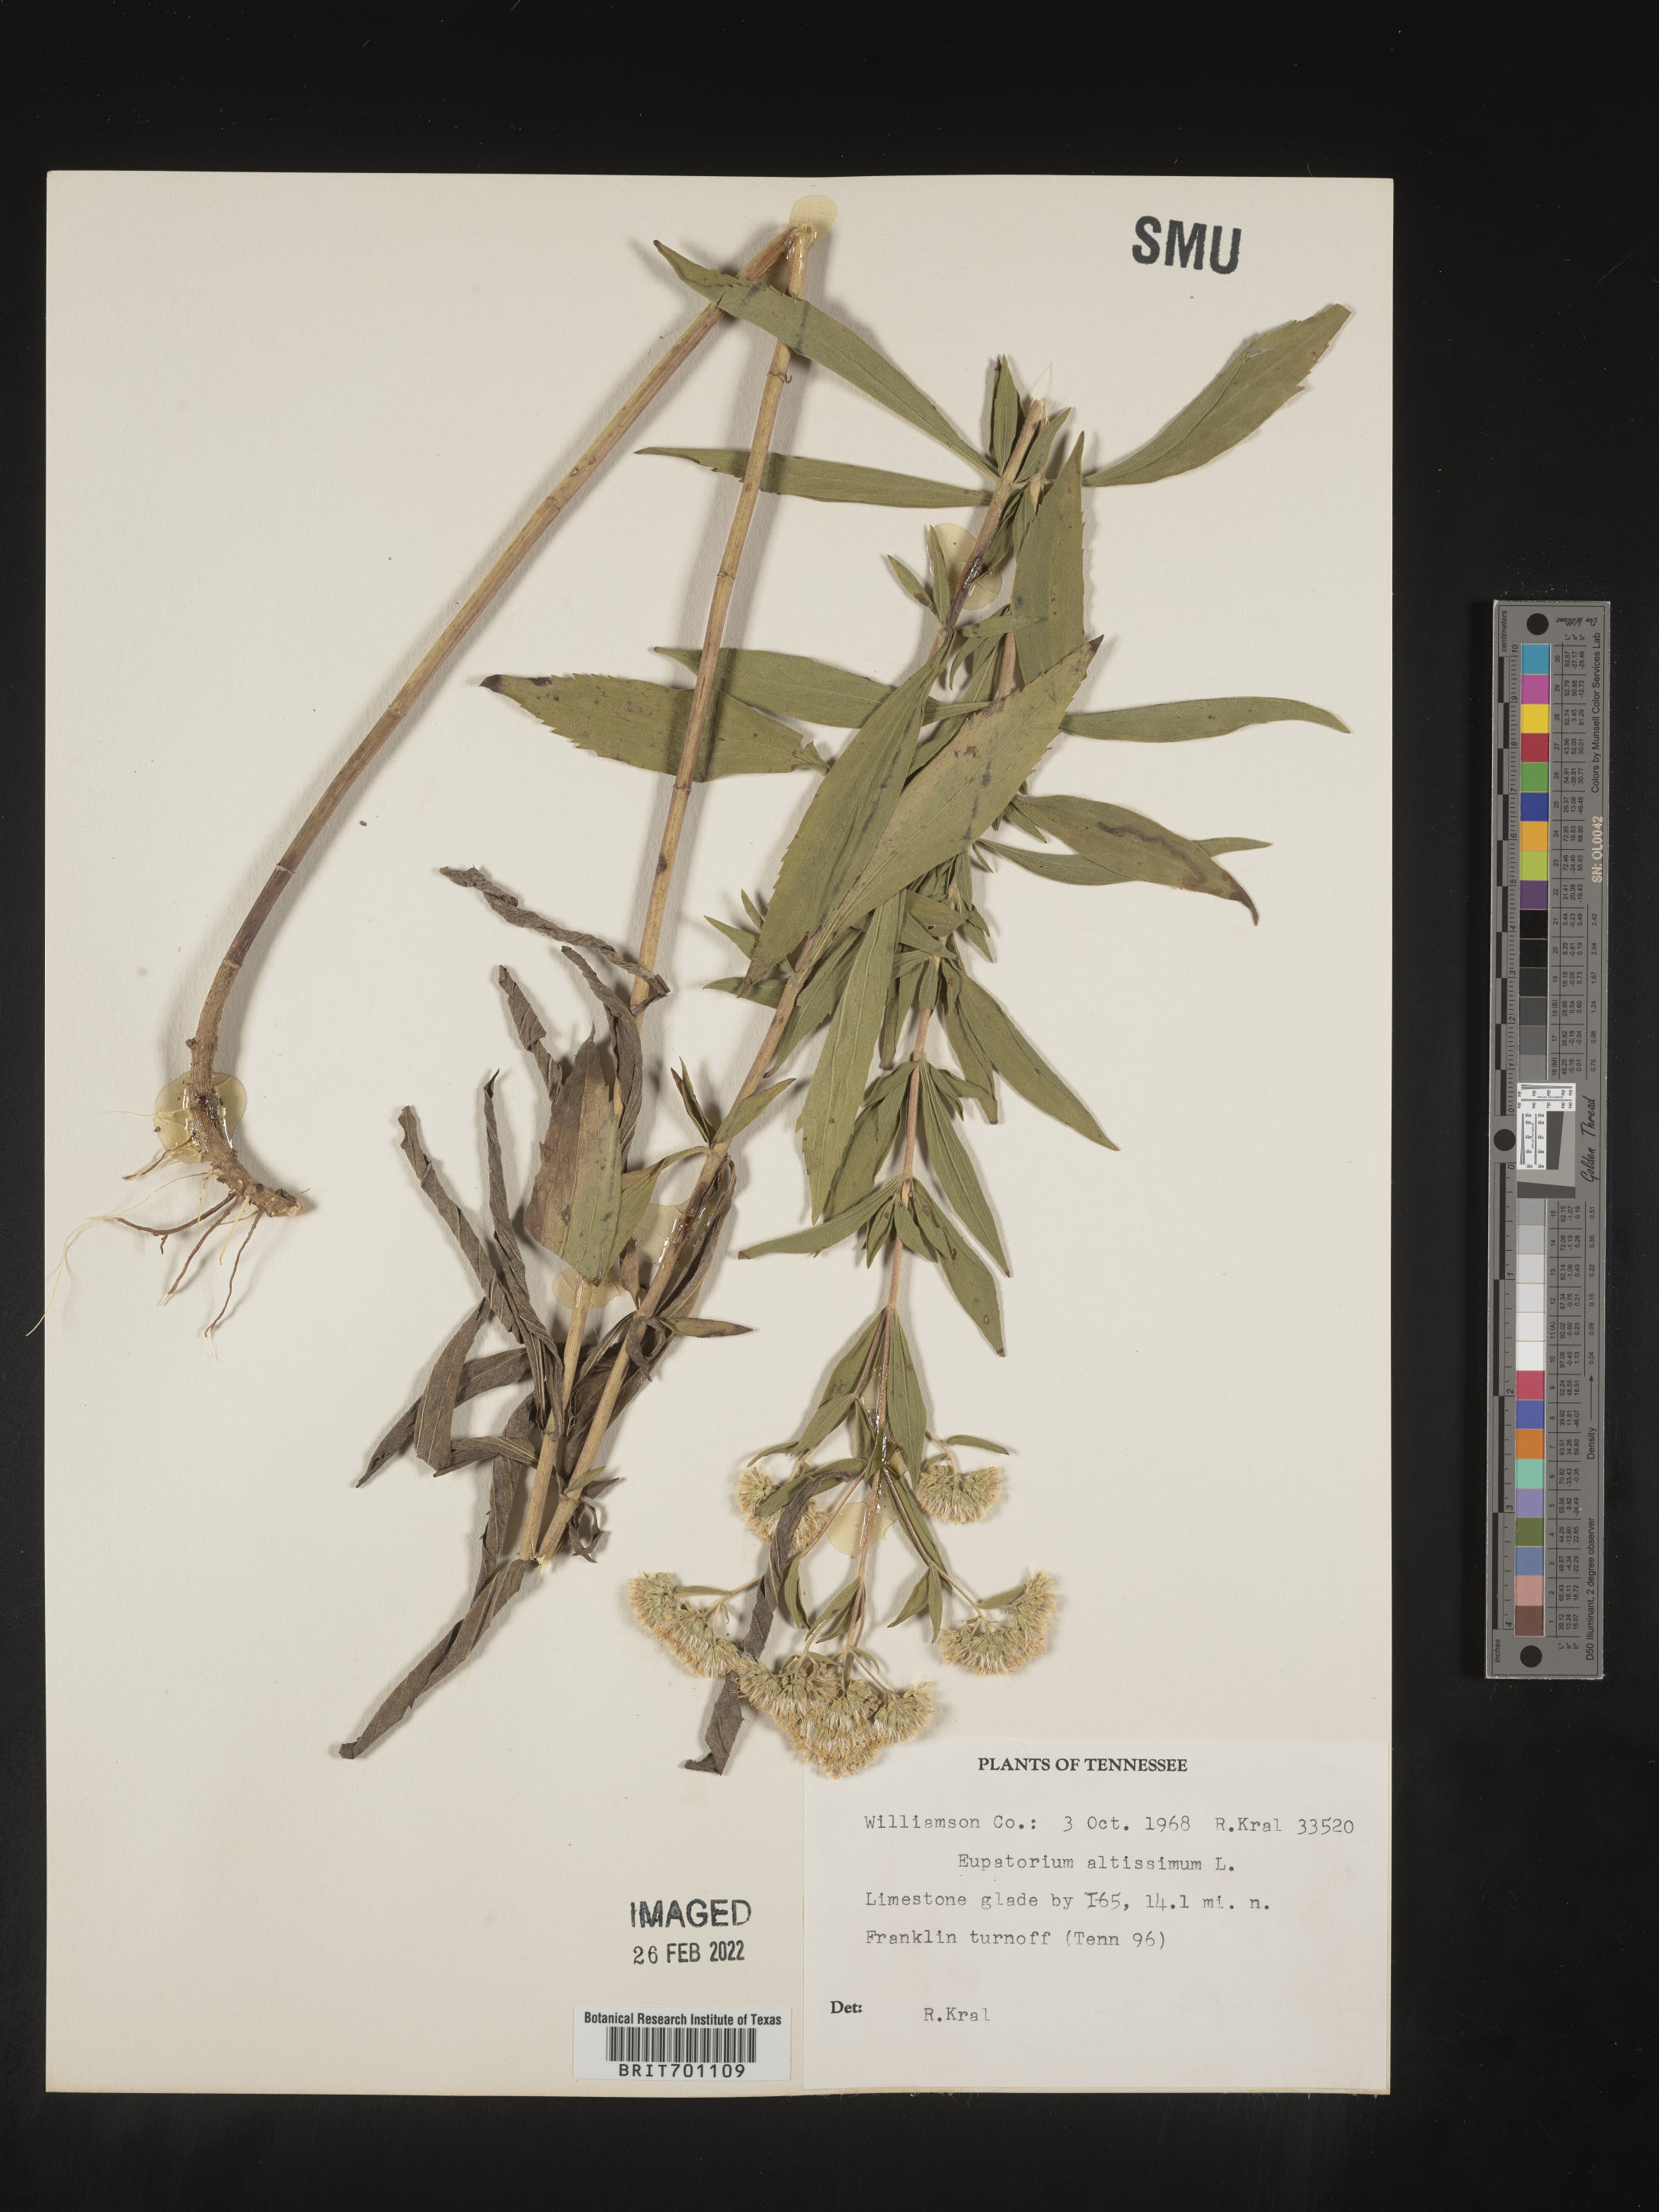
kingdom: Plantae
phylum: Tracheophyta
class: Magnoliopsida
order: Asterales
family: Asteraceae
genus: Eupatorium
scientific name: Eupatorium altissimum
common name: Tall thoroughwort
